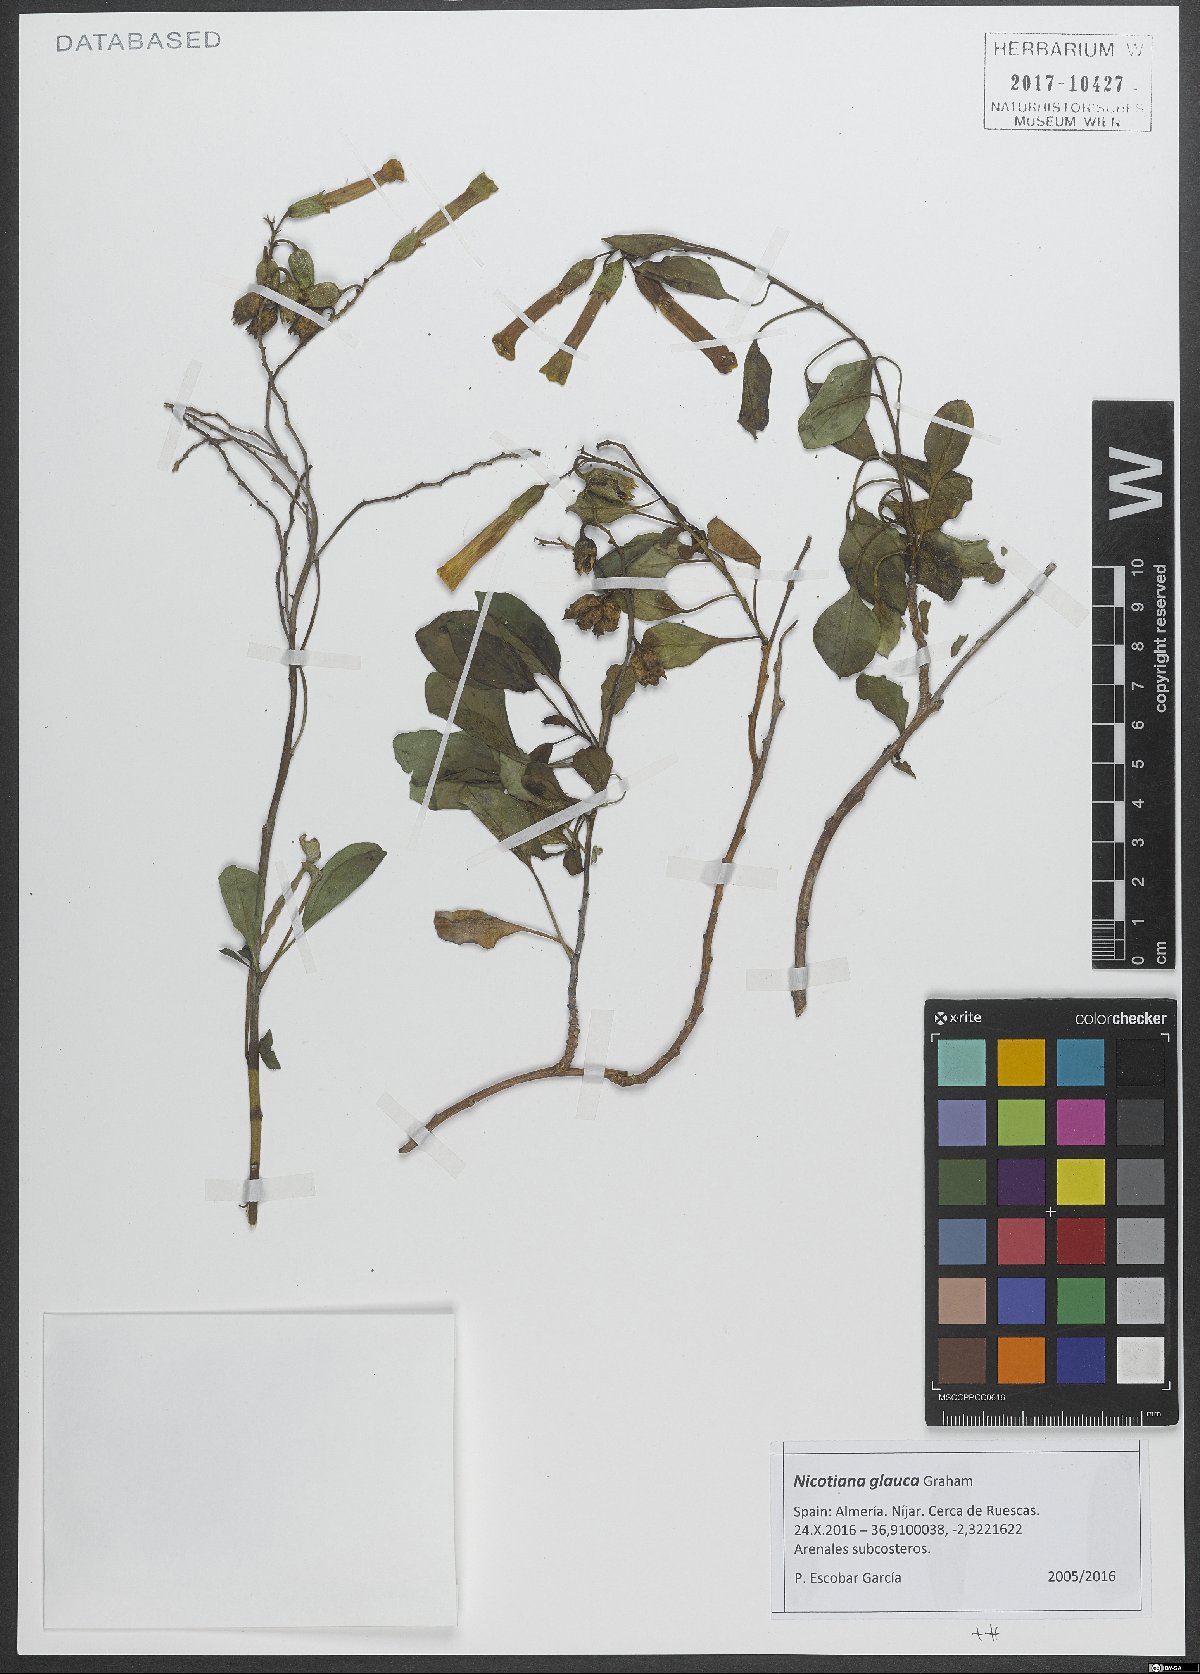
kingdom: Plantae
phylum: Tracheophyta
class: Magnoliopsida
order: Solanales
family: Solanaceae
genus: Nicotiana
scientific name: Nicotiana glauca
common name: Tree tobacco
